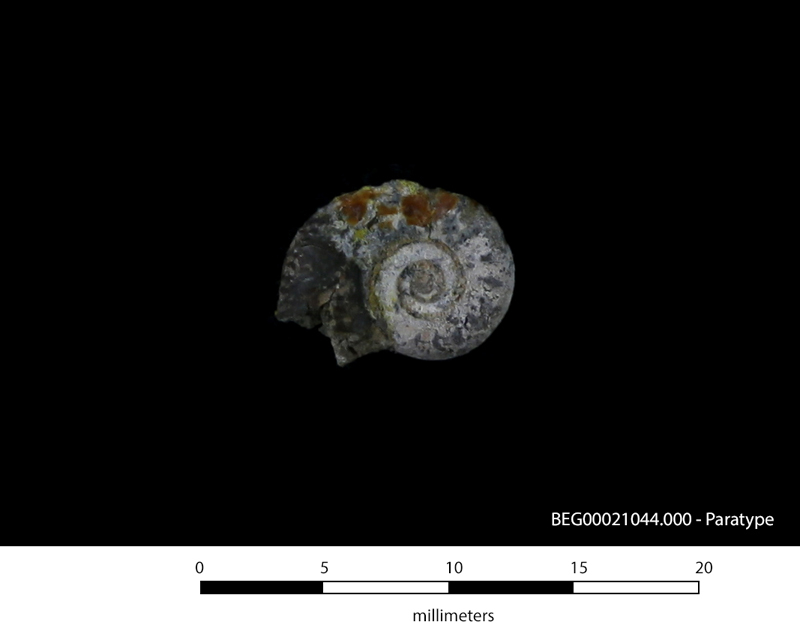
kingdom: Animalia
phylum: Mollusca
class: Cephalopoda
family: Scaphitidae
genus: Yezoites
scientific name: Yezoites subevolutus
